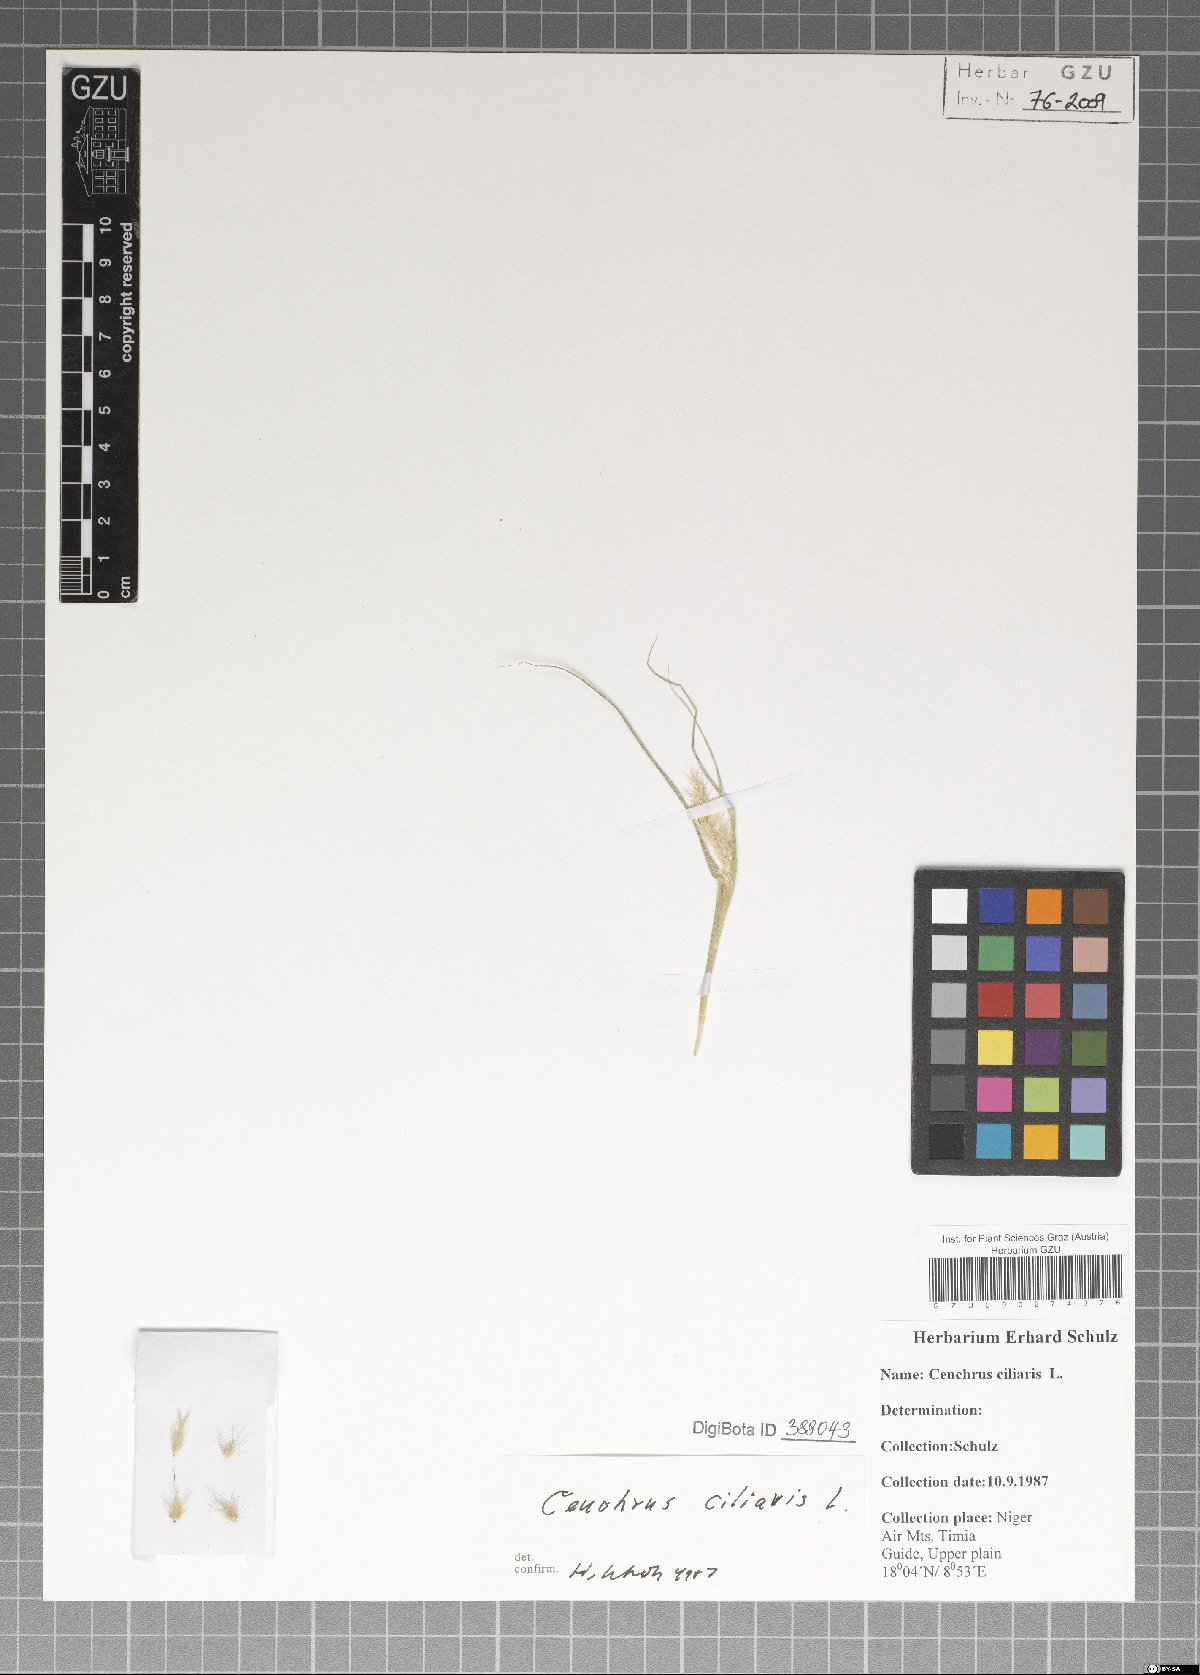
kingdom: Plantae
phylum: Tracheophyta
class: Liliopsida
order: Poales
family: Poaceae
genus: Cenchrus
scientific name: Cenchrus ciliaris
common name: Buffelgrass
